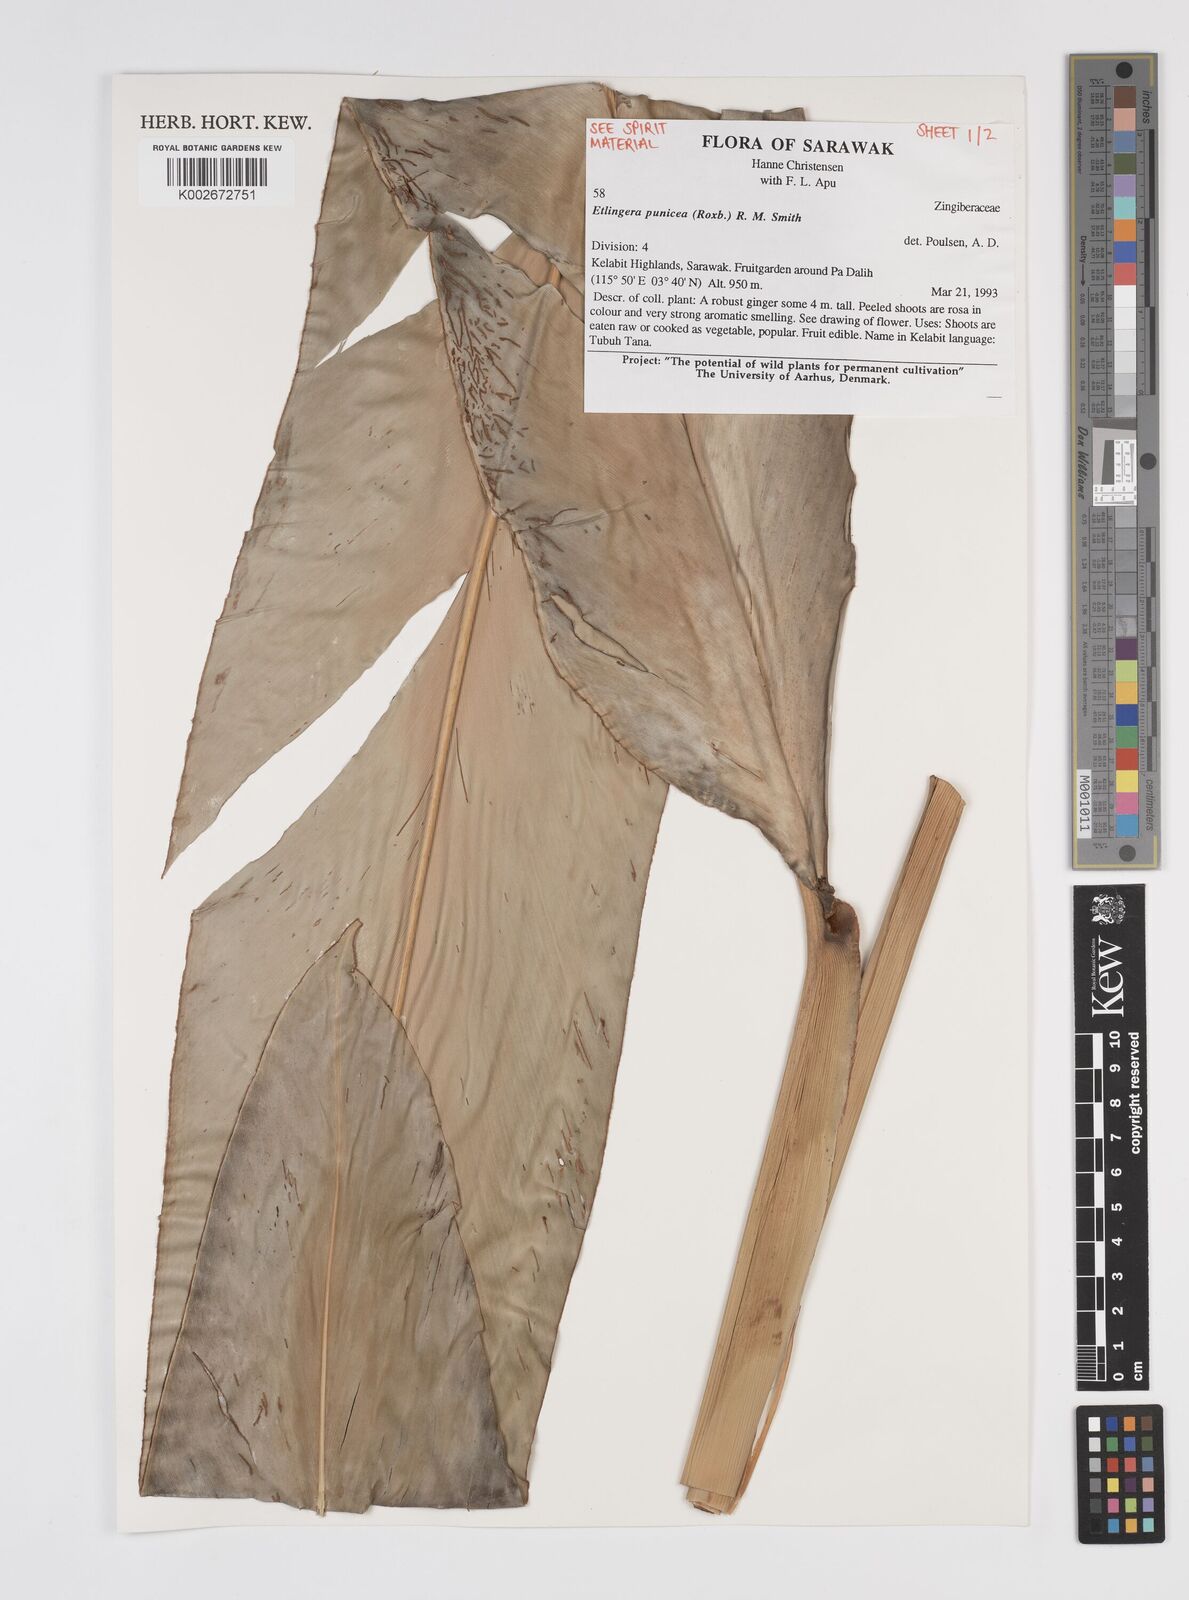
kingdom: Plantae
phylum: Tracheophyta
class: Liliopsida
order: Zingiberales
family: Zingiberaceae
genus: Etlingera
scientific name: Etlingera punicea
